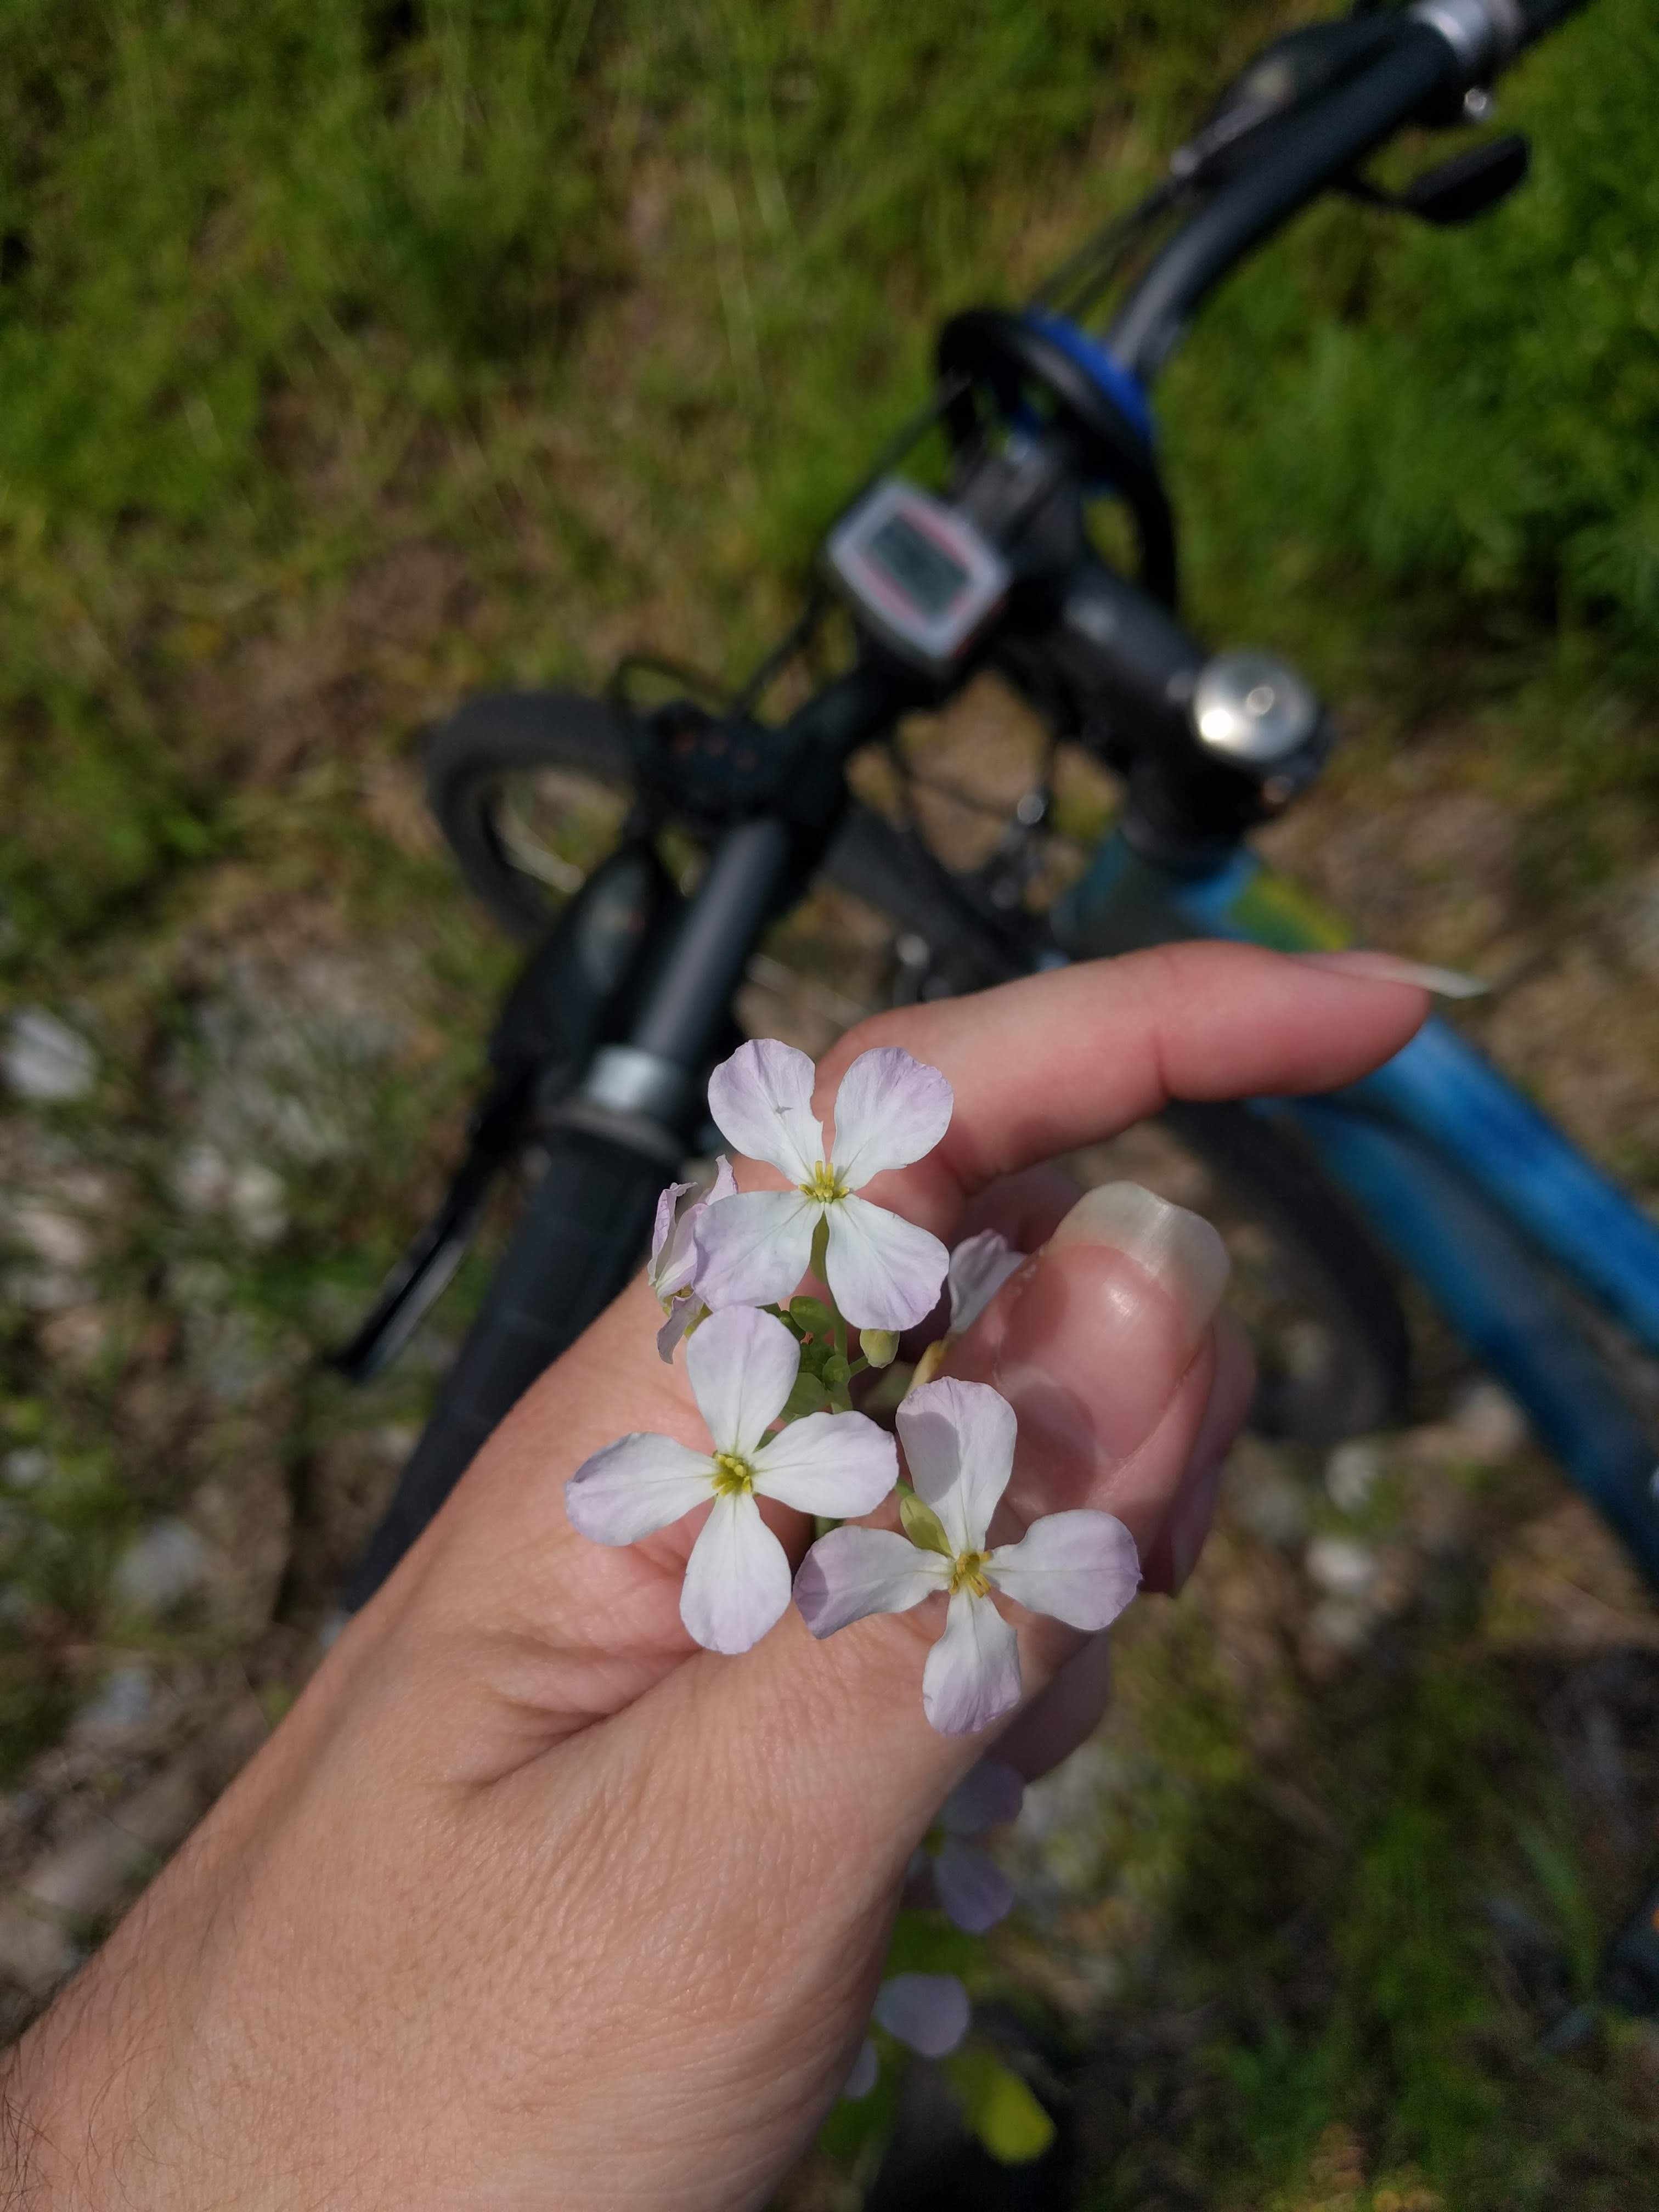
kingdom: Plantae
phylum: Tracheophyta
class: Magnoliopsida
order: Brassicales
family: Brassicaceae
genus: Raphanus
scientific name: Raphanus sativus
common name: Cultivated radish
